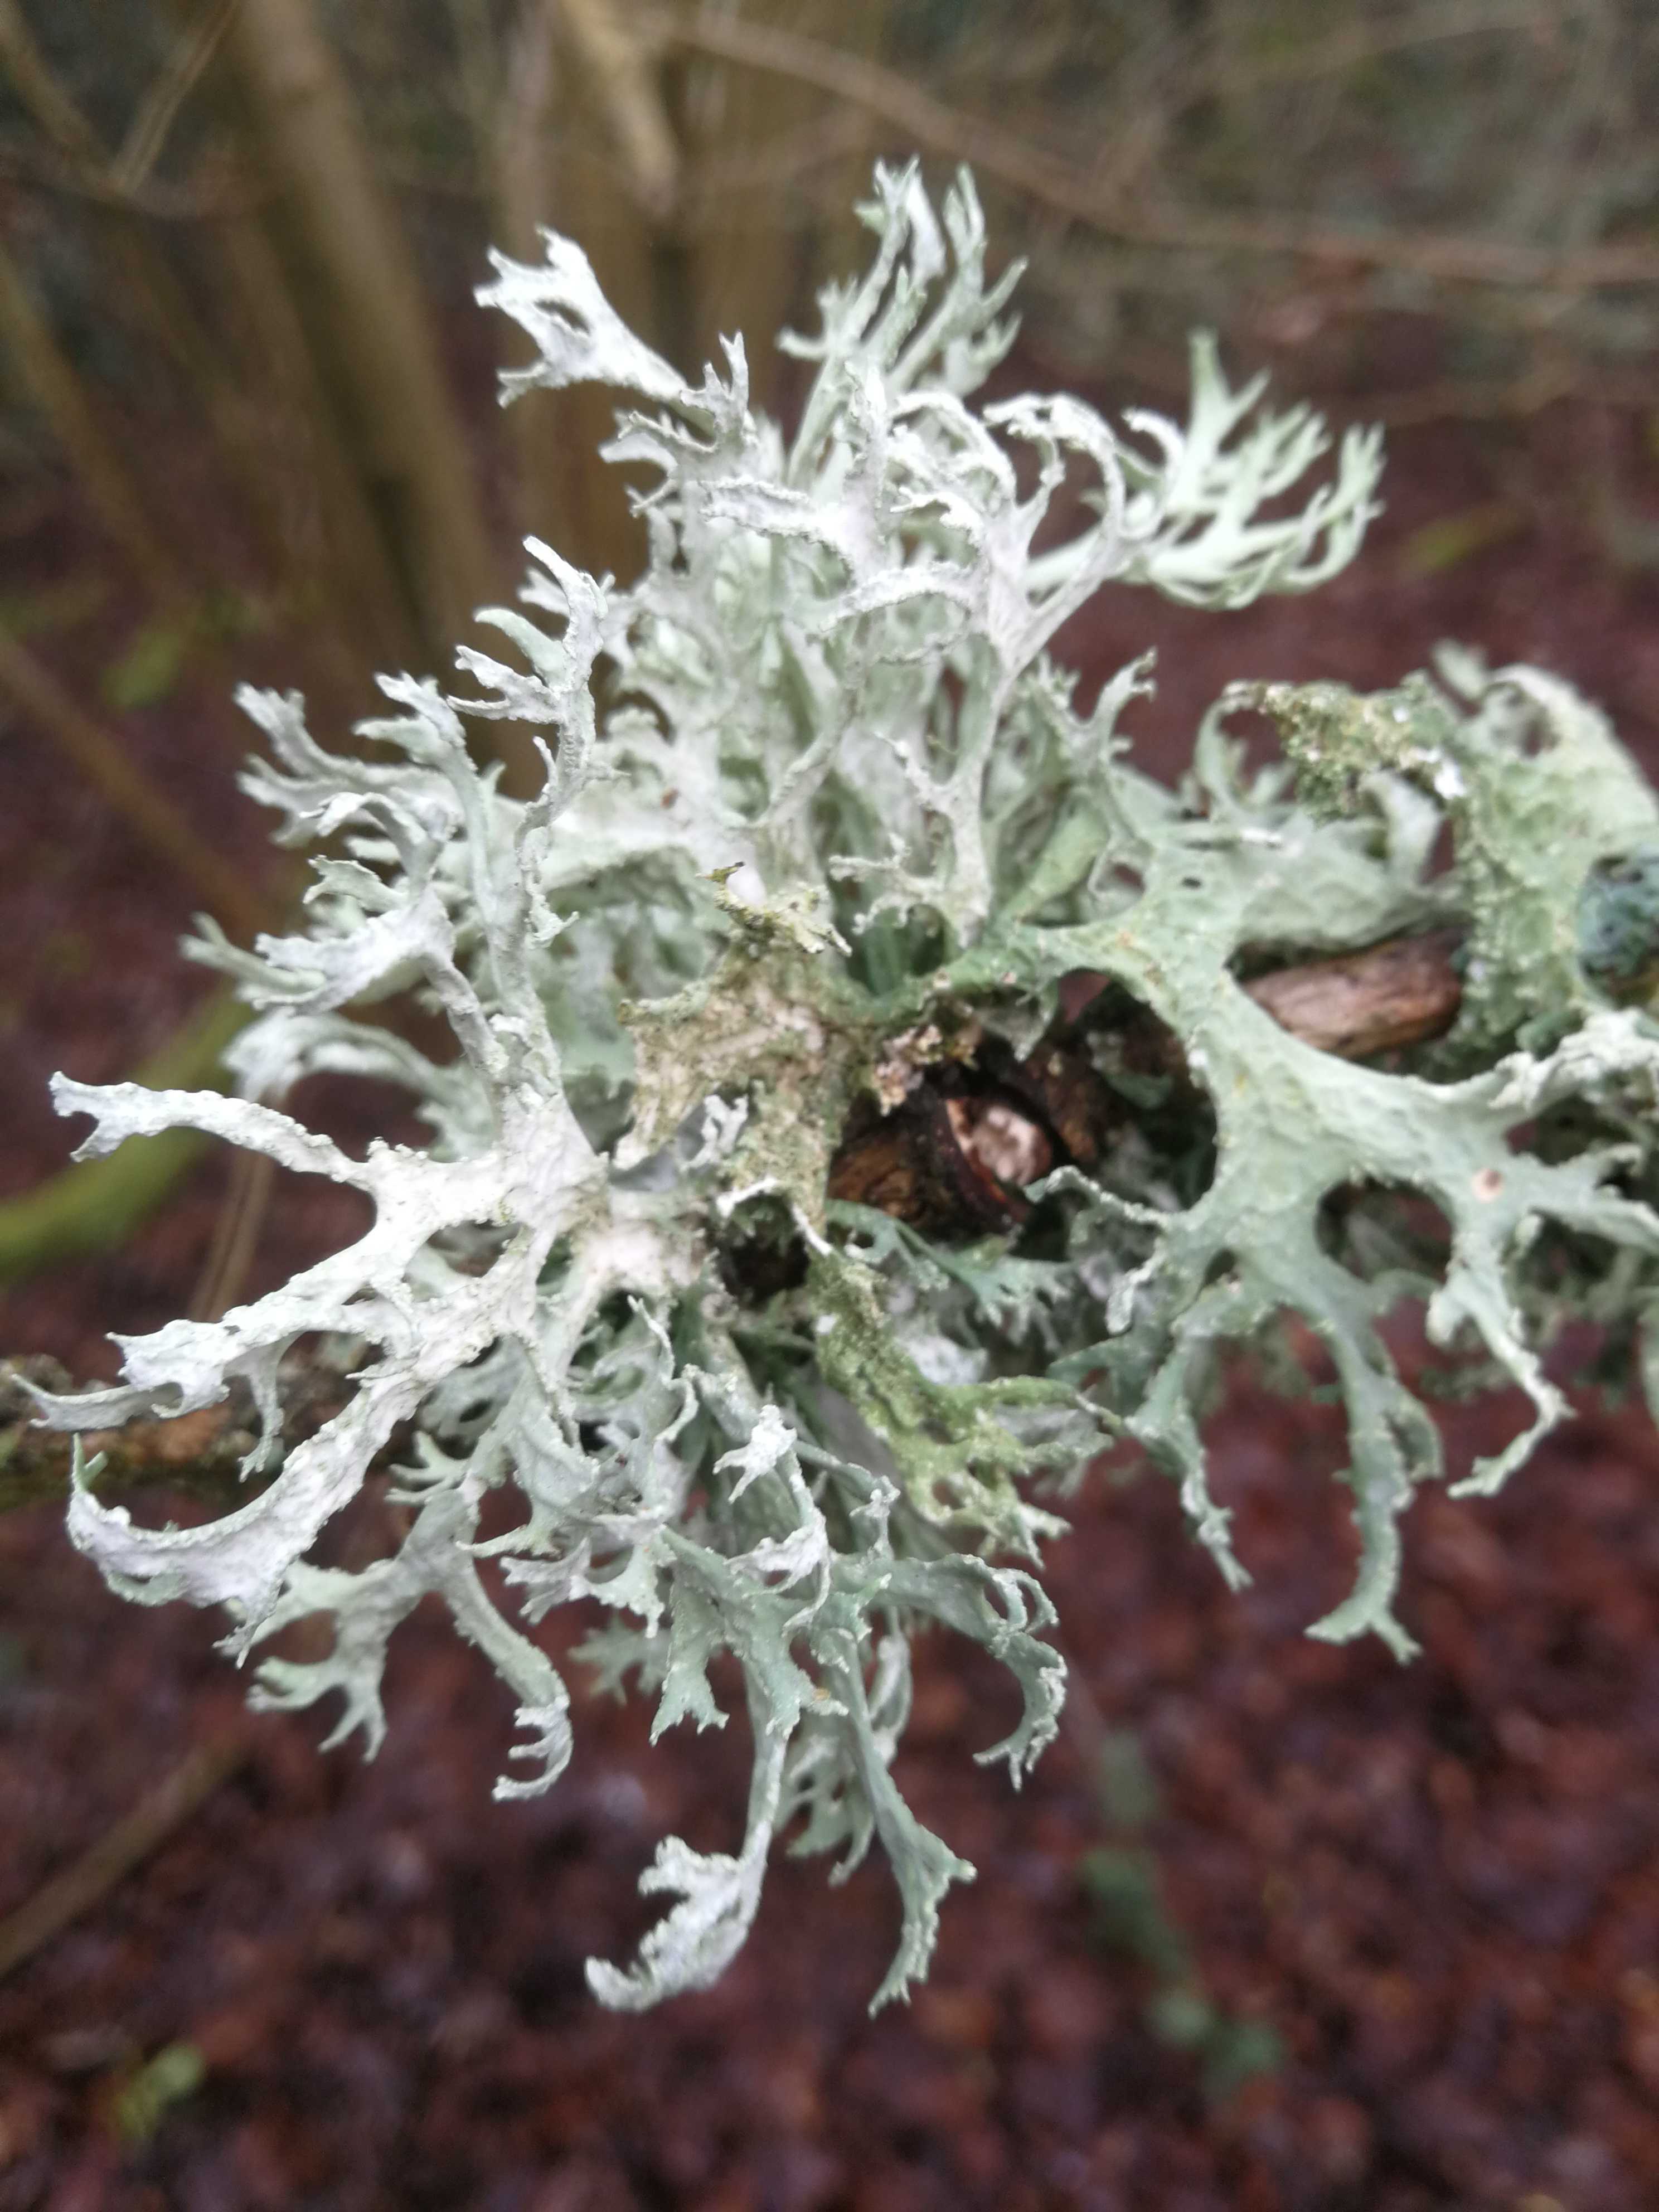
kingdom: Fungi
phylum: Ascomycota
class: Lecanoromycetes
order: Lecanorales
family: Parmeliaceae
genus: Evernia
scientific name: Evernia prunastri
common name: almindelig slåenlav
